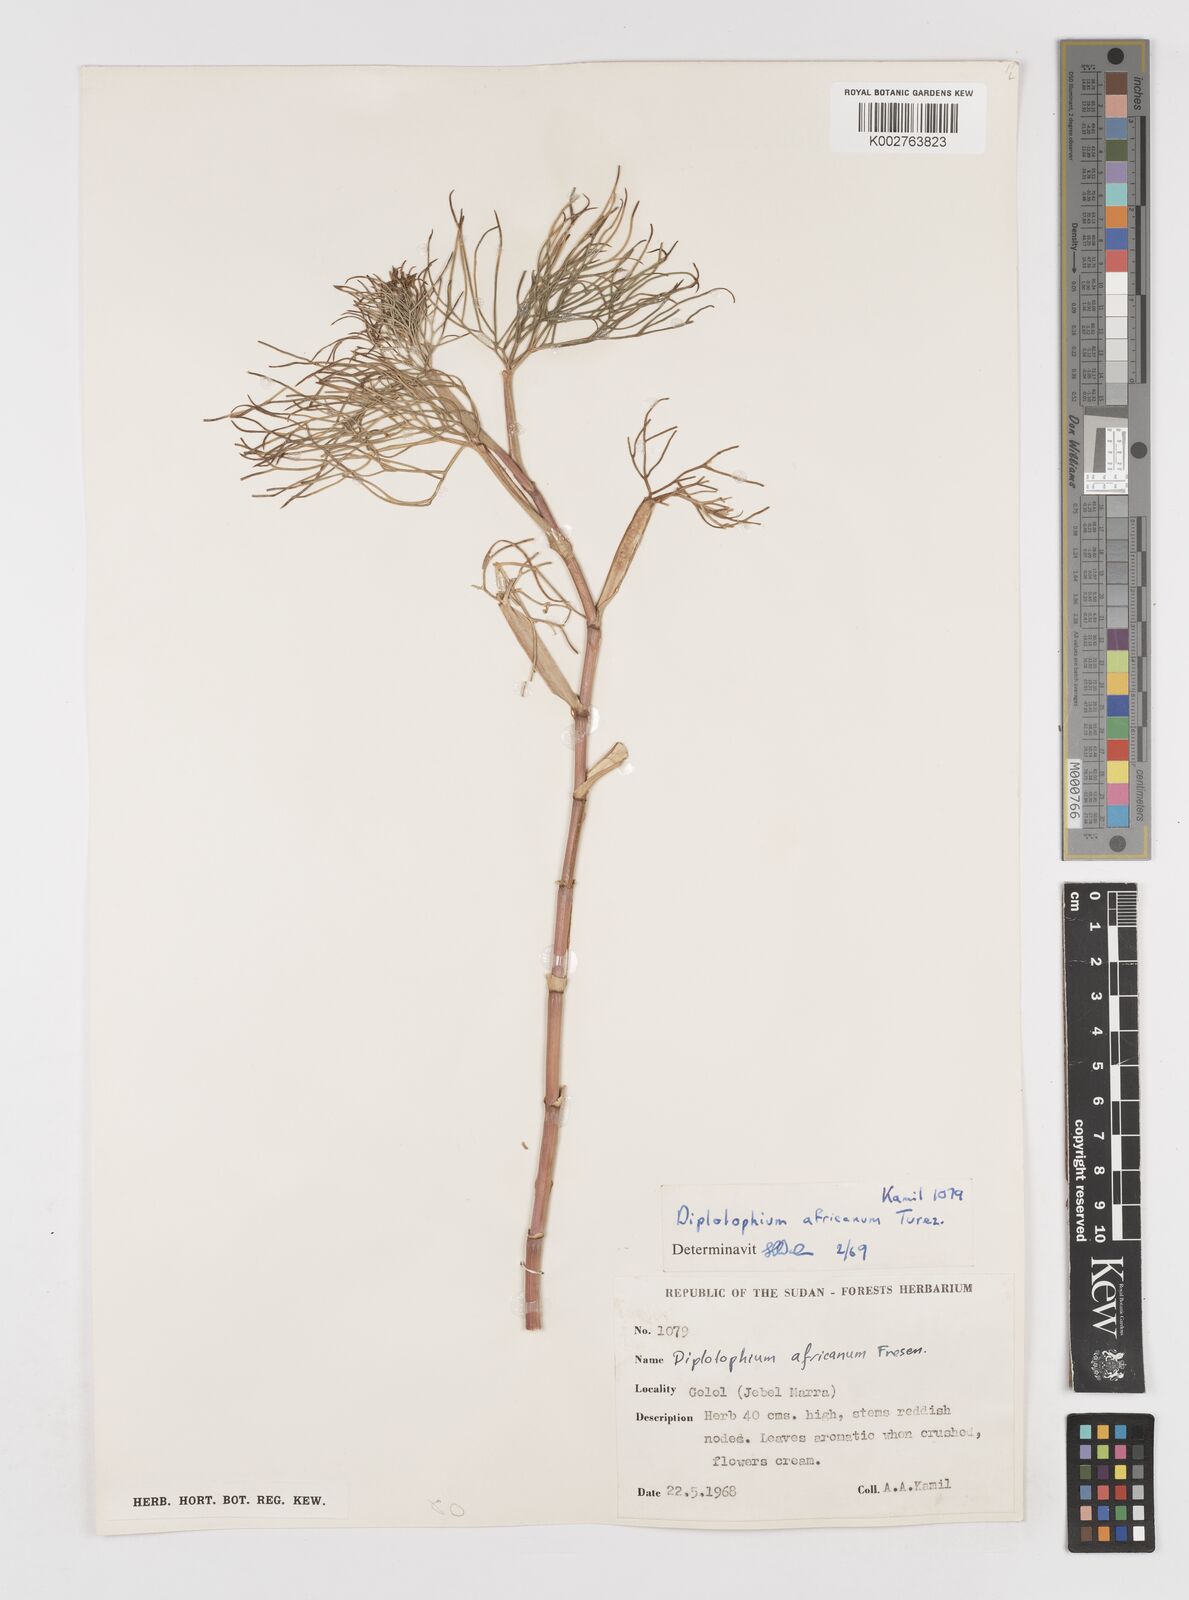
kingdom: Plantae
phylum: Tracheophyta
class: Magnoliopsida
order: Apiales
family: Apiaceae
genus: Diplolophium
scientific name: Diplolophium africanum
